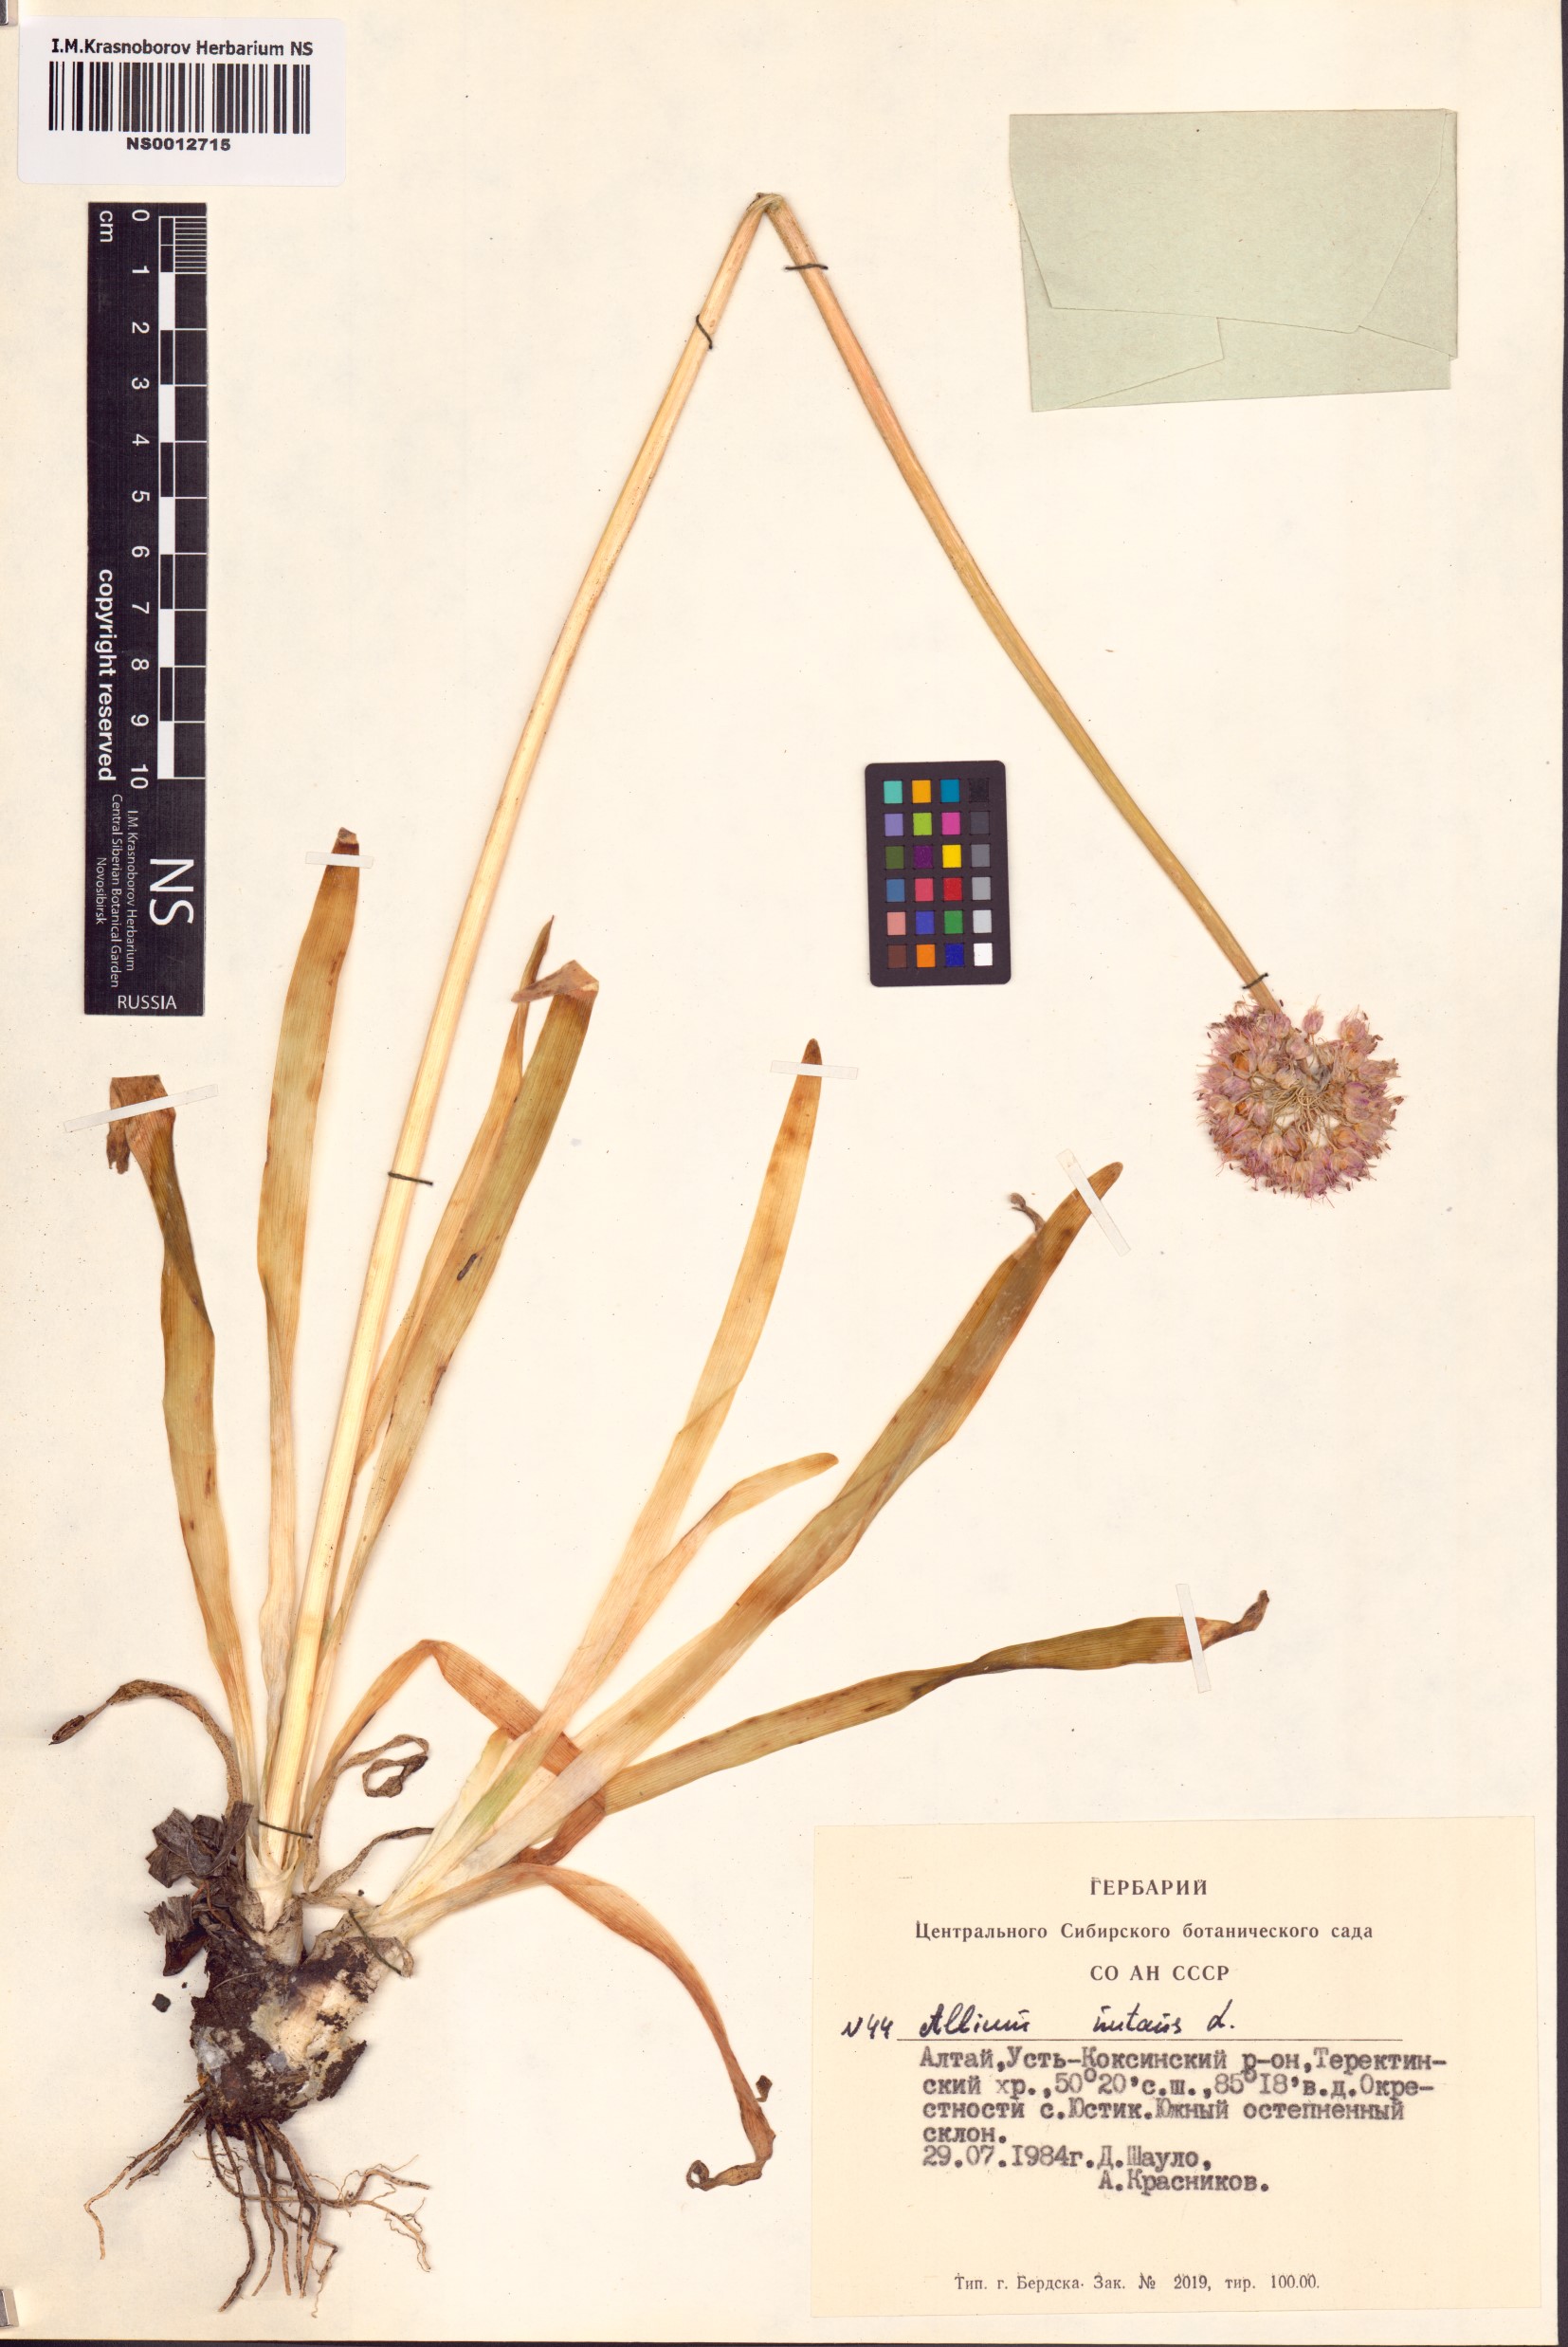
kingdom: Plantae
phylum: Tracheophyta
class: Liliopsida
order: Asparagales
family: Amaryllidaceae
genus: Allium
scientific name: Allium nutans
